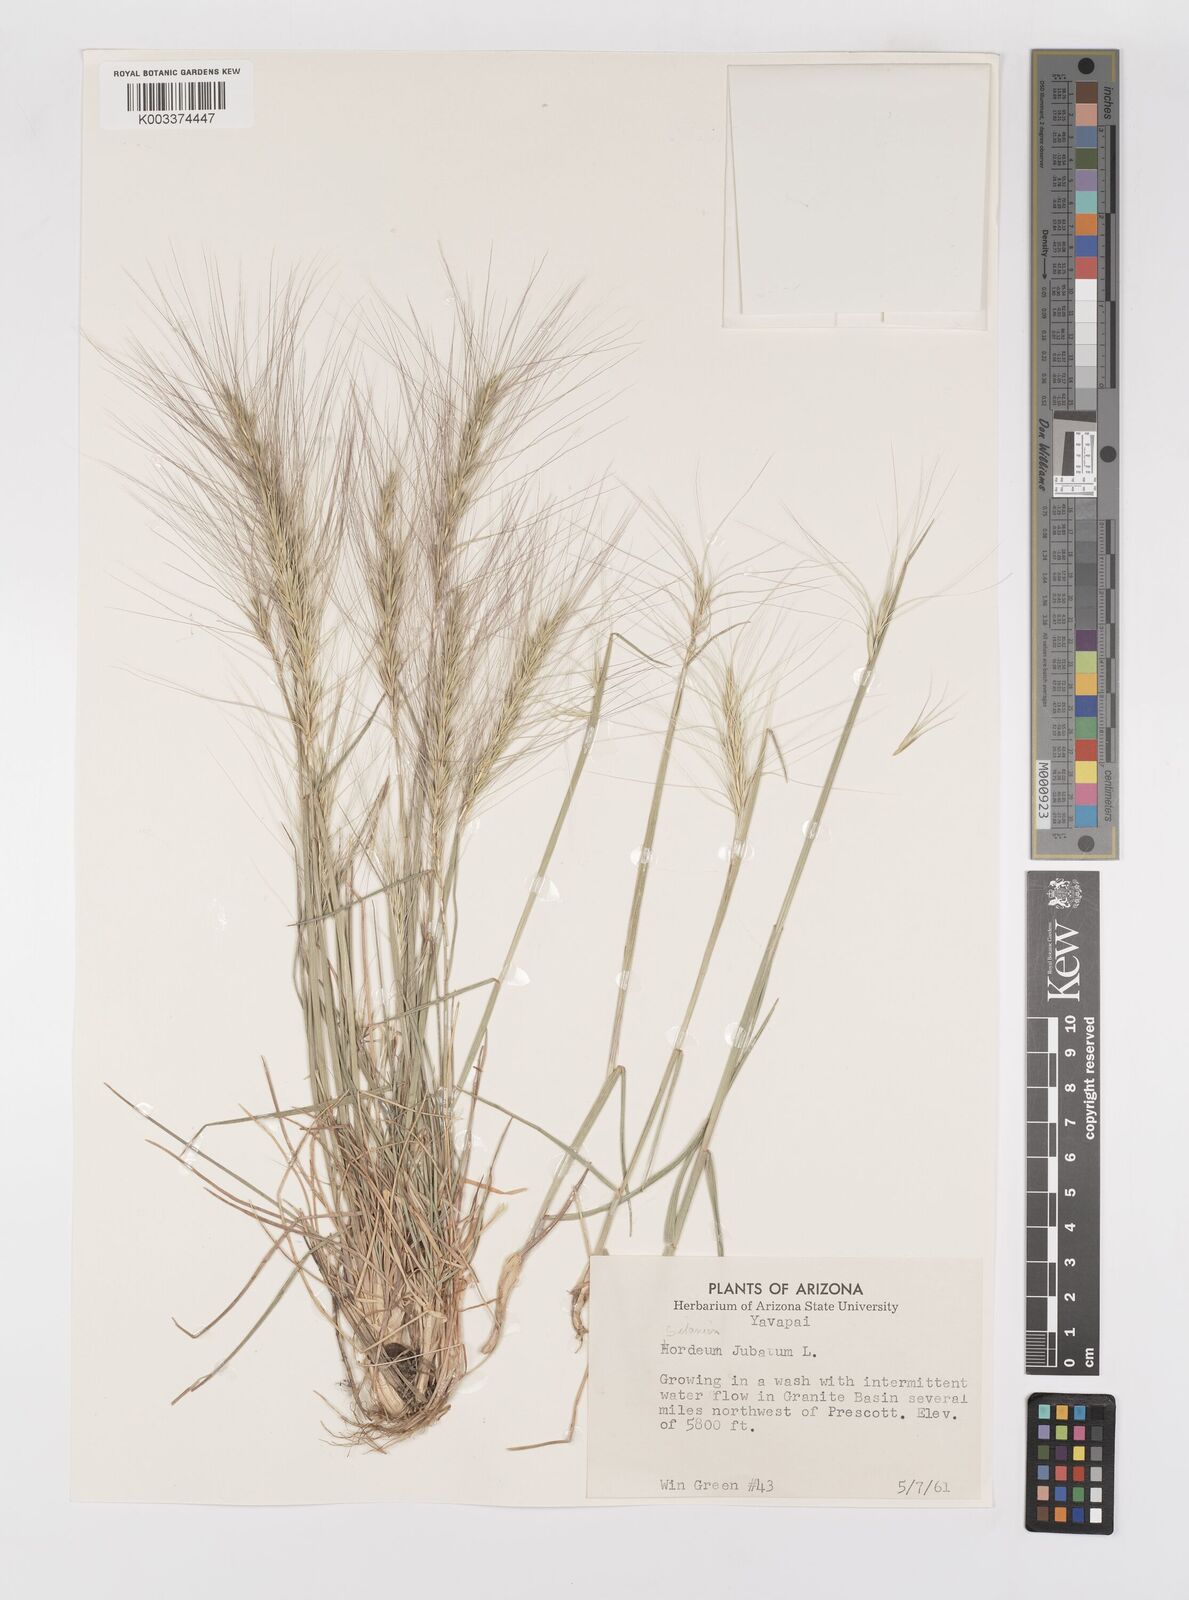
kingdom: Plantae
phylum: Tracheophyta
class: Liliopsida
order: Poales
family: Poaceae
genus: Elymus
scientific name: Elymus multisetus
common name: Big squirreltail
